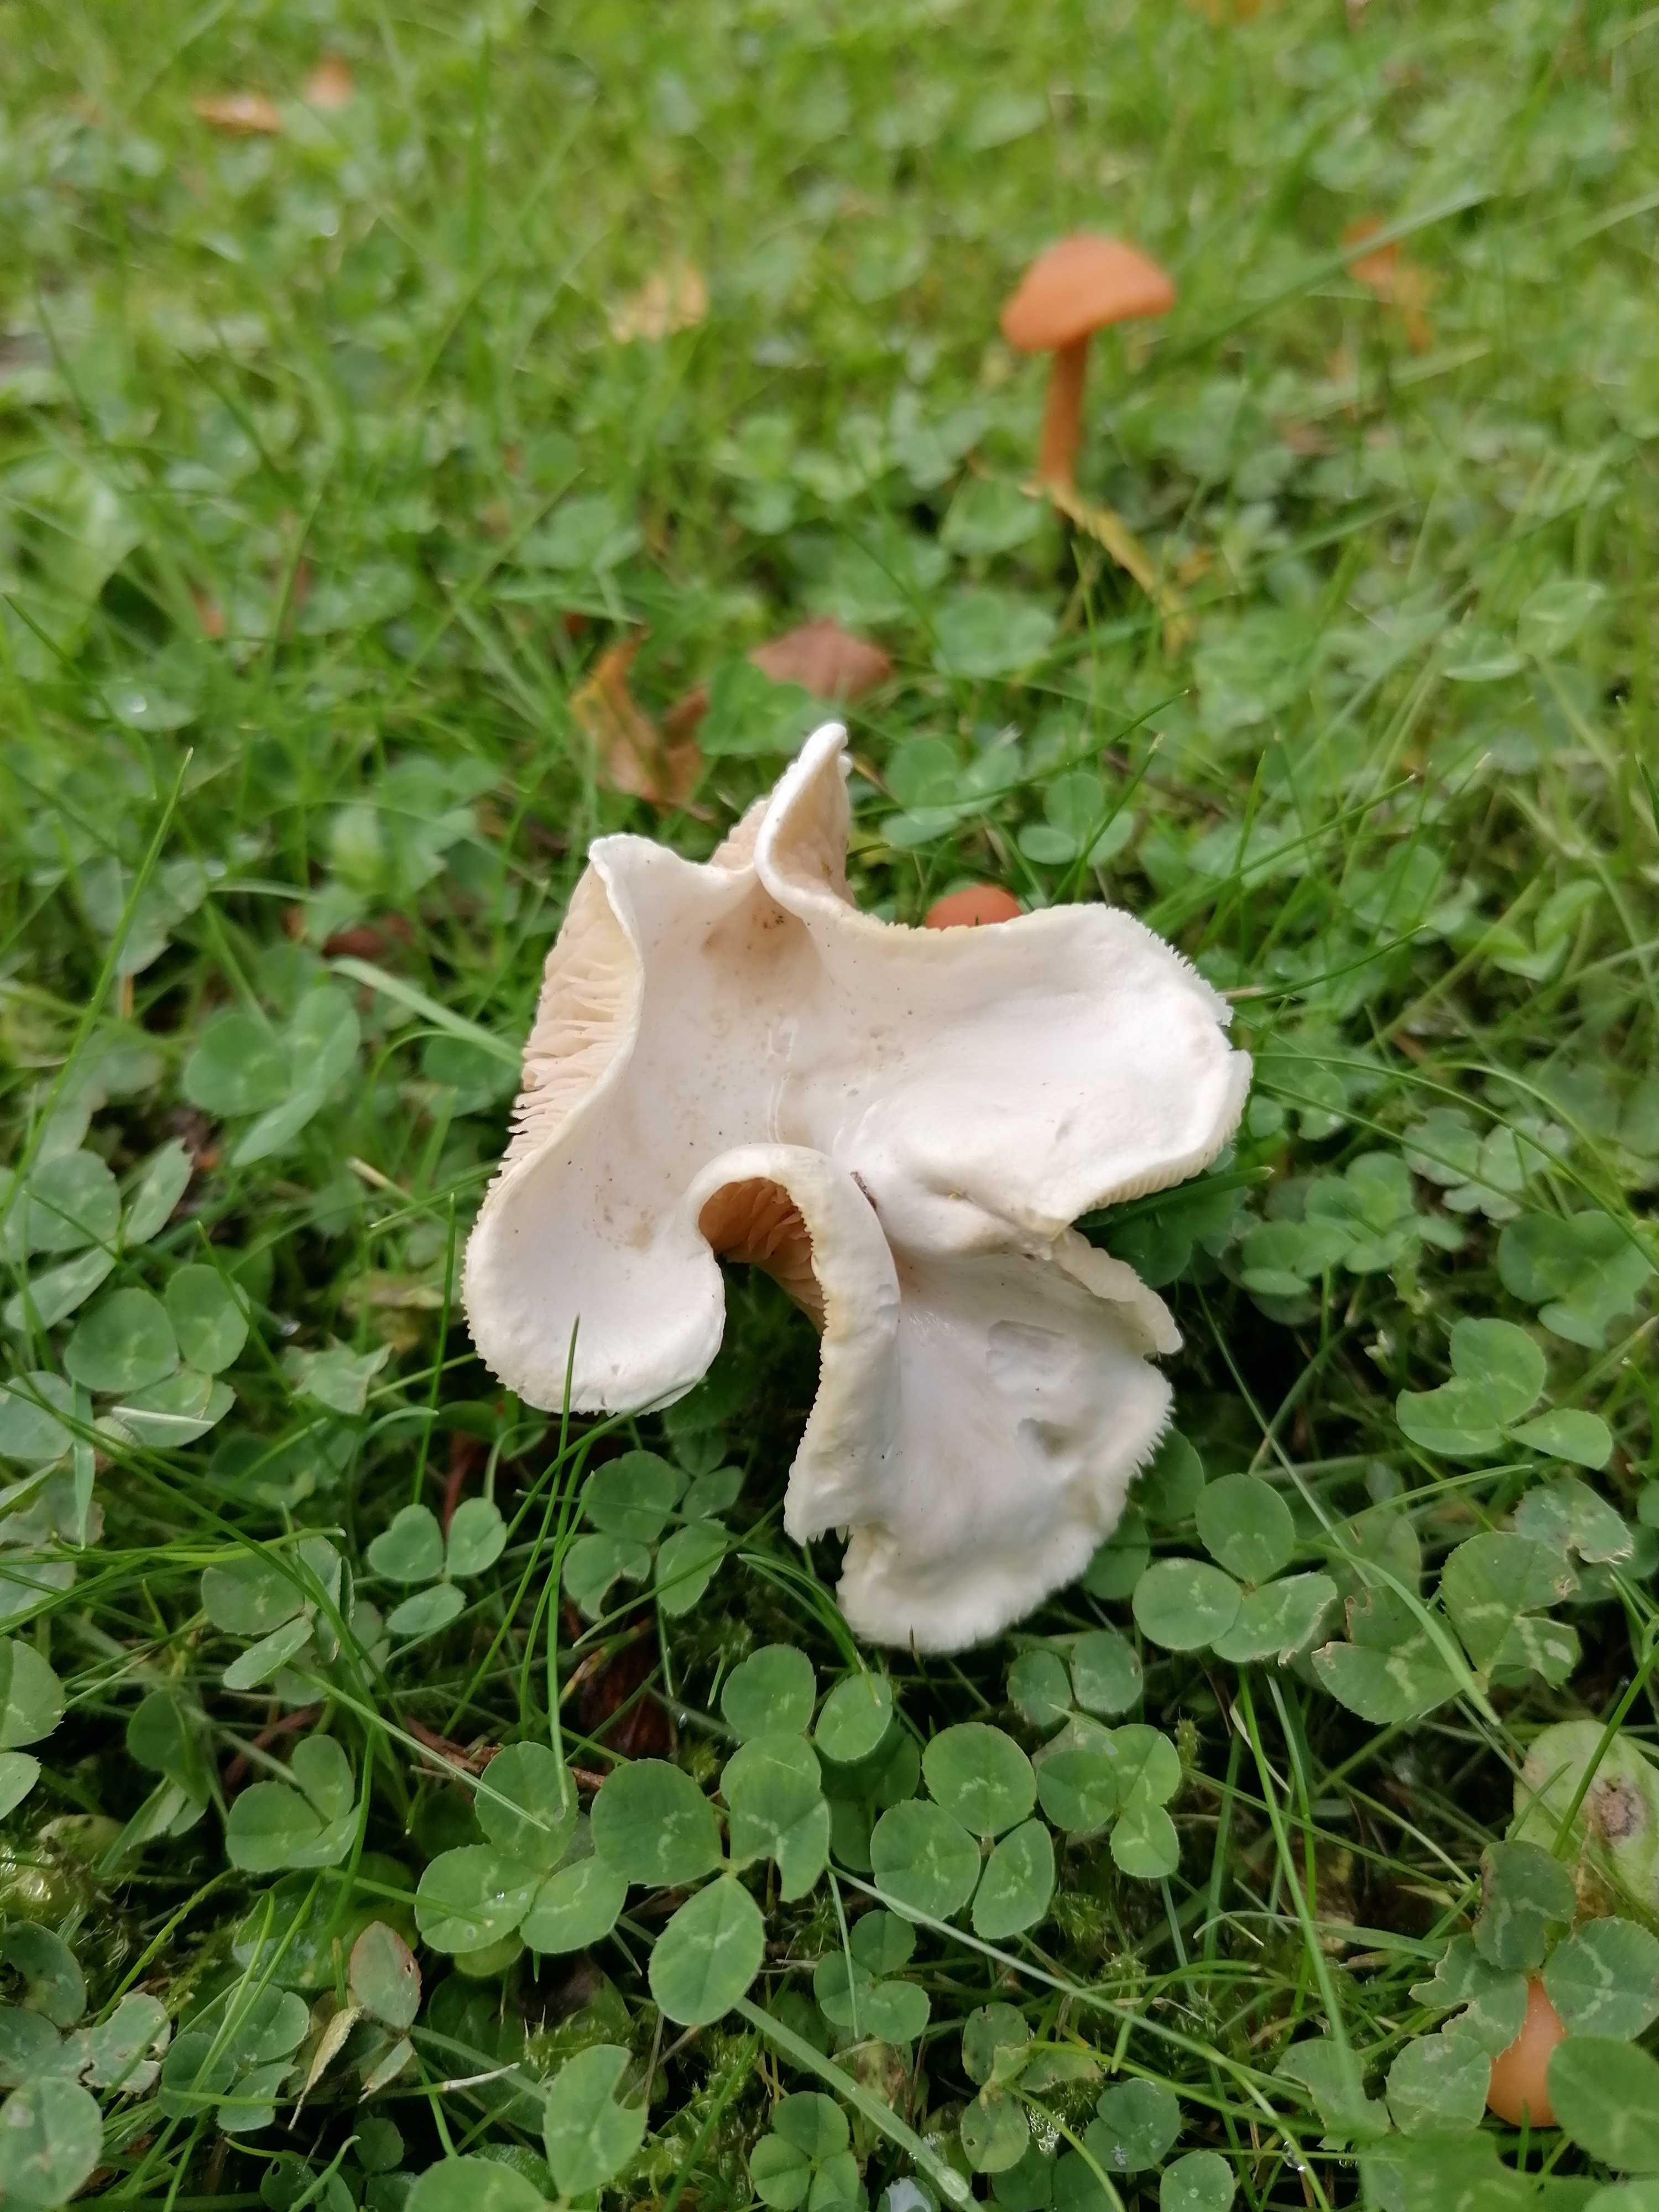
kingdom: Fungi
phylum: Basidiomycota
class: Agaricomycetes
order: Agaricales
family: Entolomataceae
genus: Clitopilus
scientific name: Clitopilus prunulus
